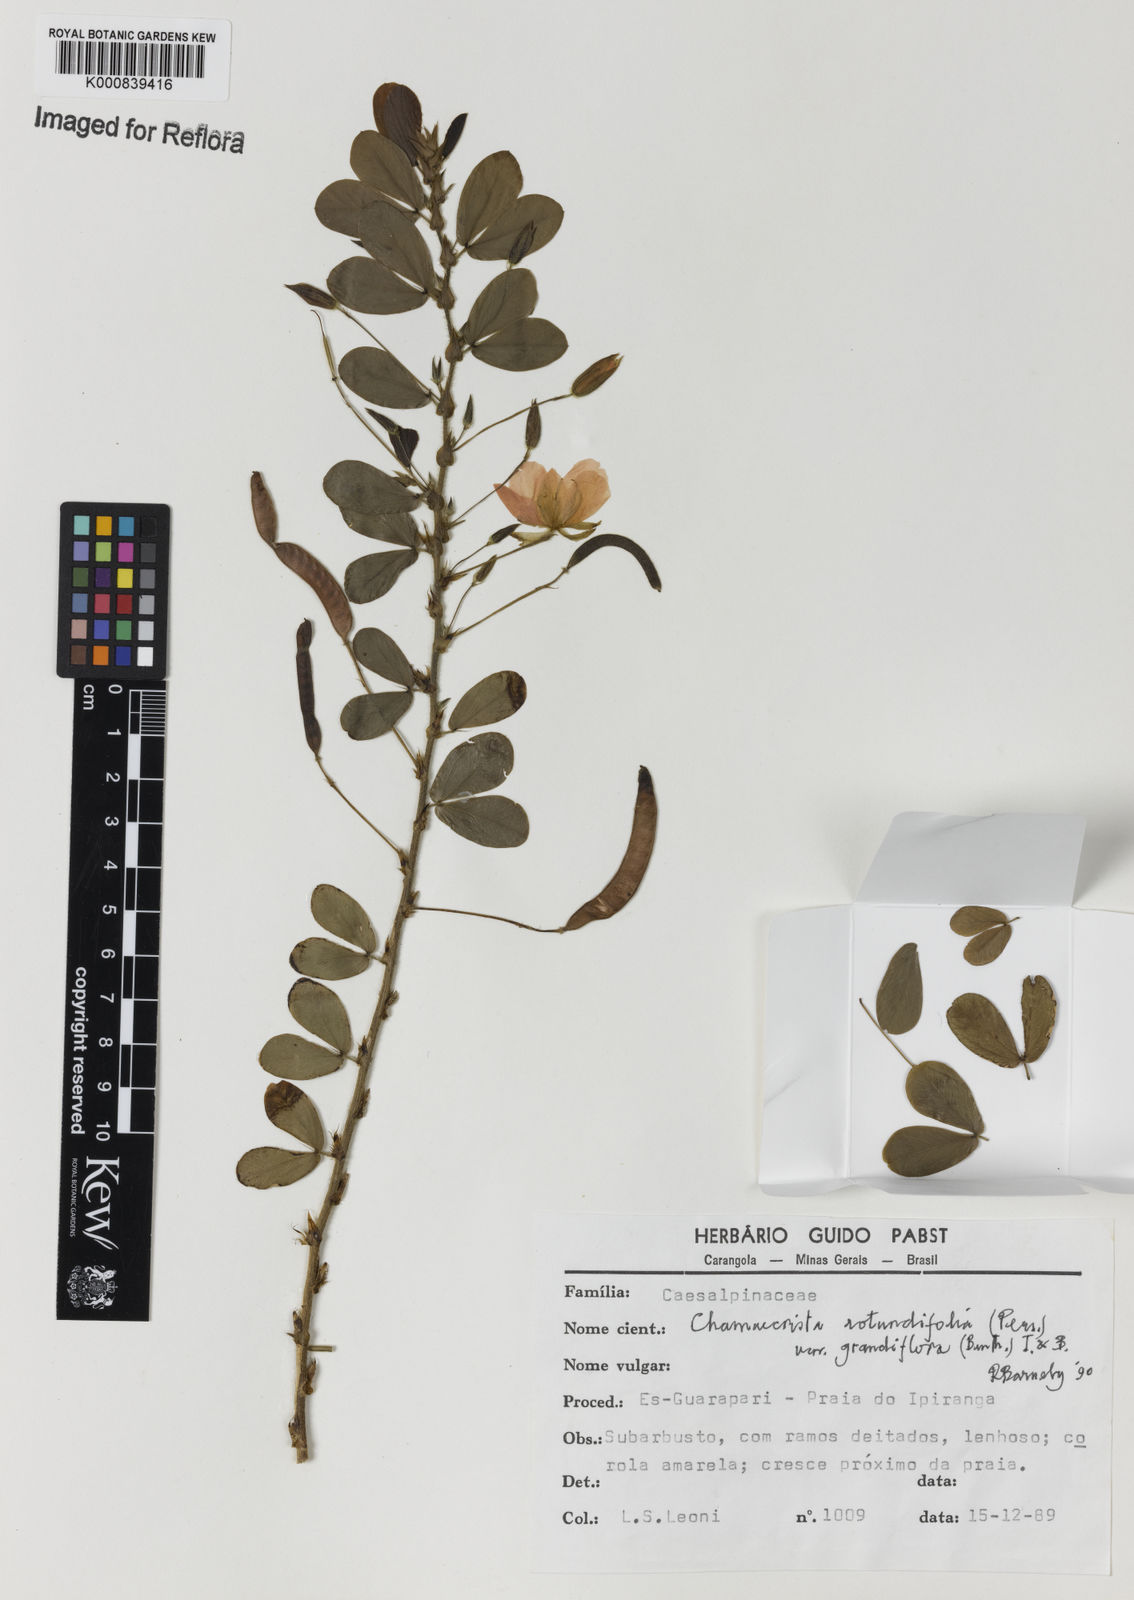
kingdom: Plantae
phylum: Tracheophyta
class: Magnoliopsida
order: Fabales
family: Fabaceae
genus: Chamaecrista
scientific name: Chamaecrista rotundifolia
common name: Round-leaf cassia
